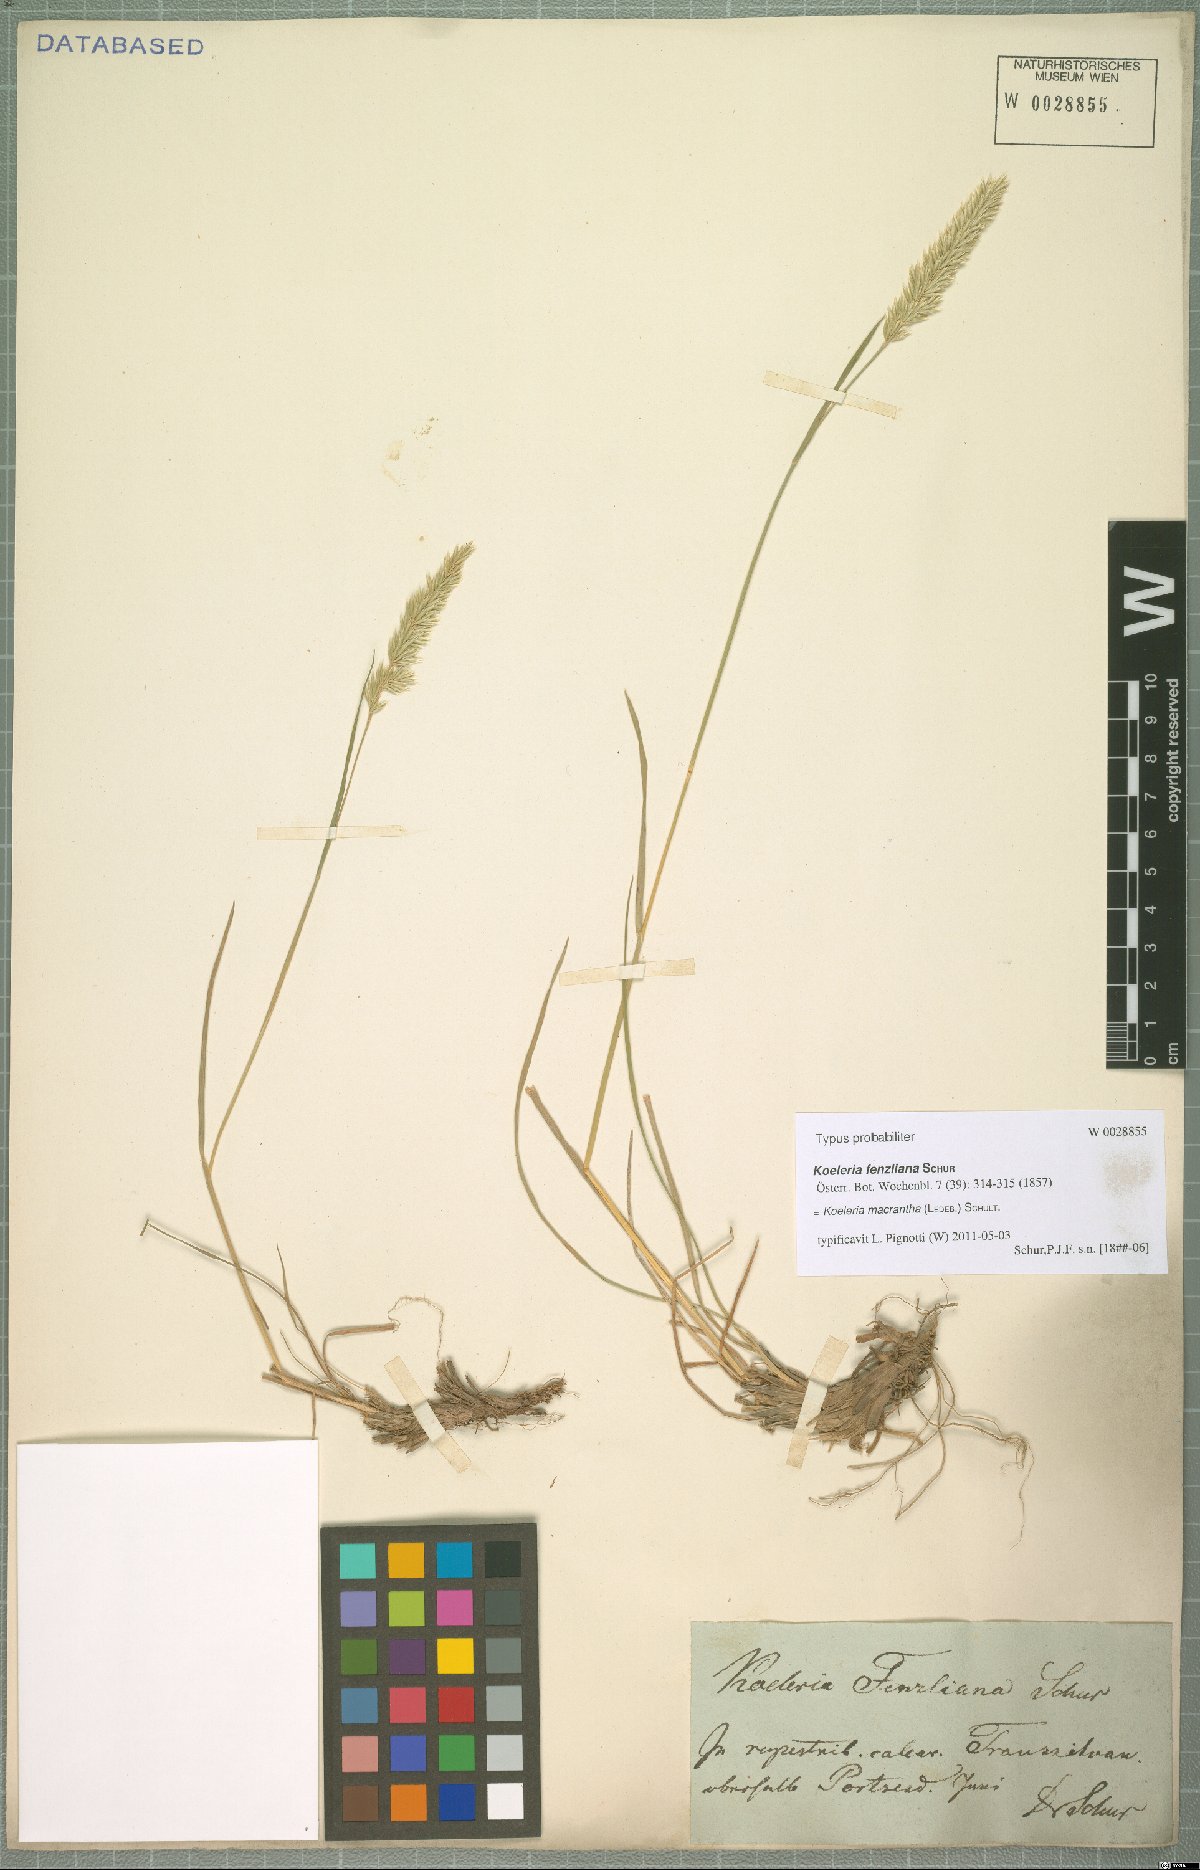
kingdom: Plantae
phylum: Tracheophyta
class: Liliopsida
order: Poales
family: Poaceae
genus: Koeleria
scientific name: Koeleria macrantha
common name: Crested hair-grass
